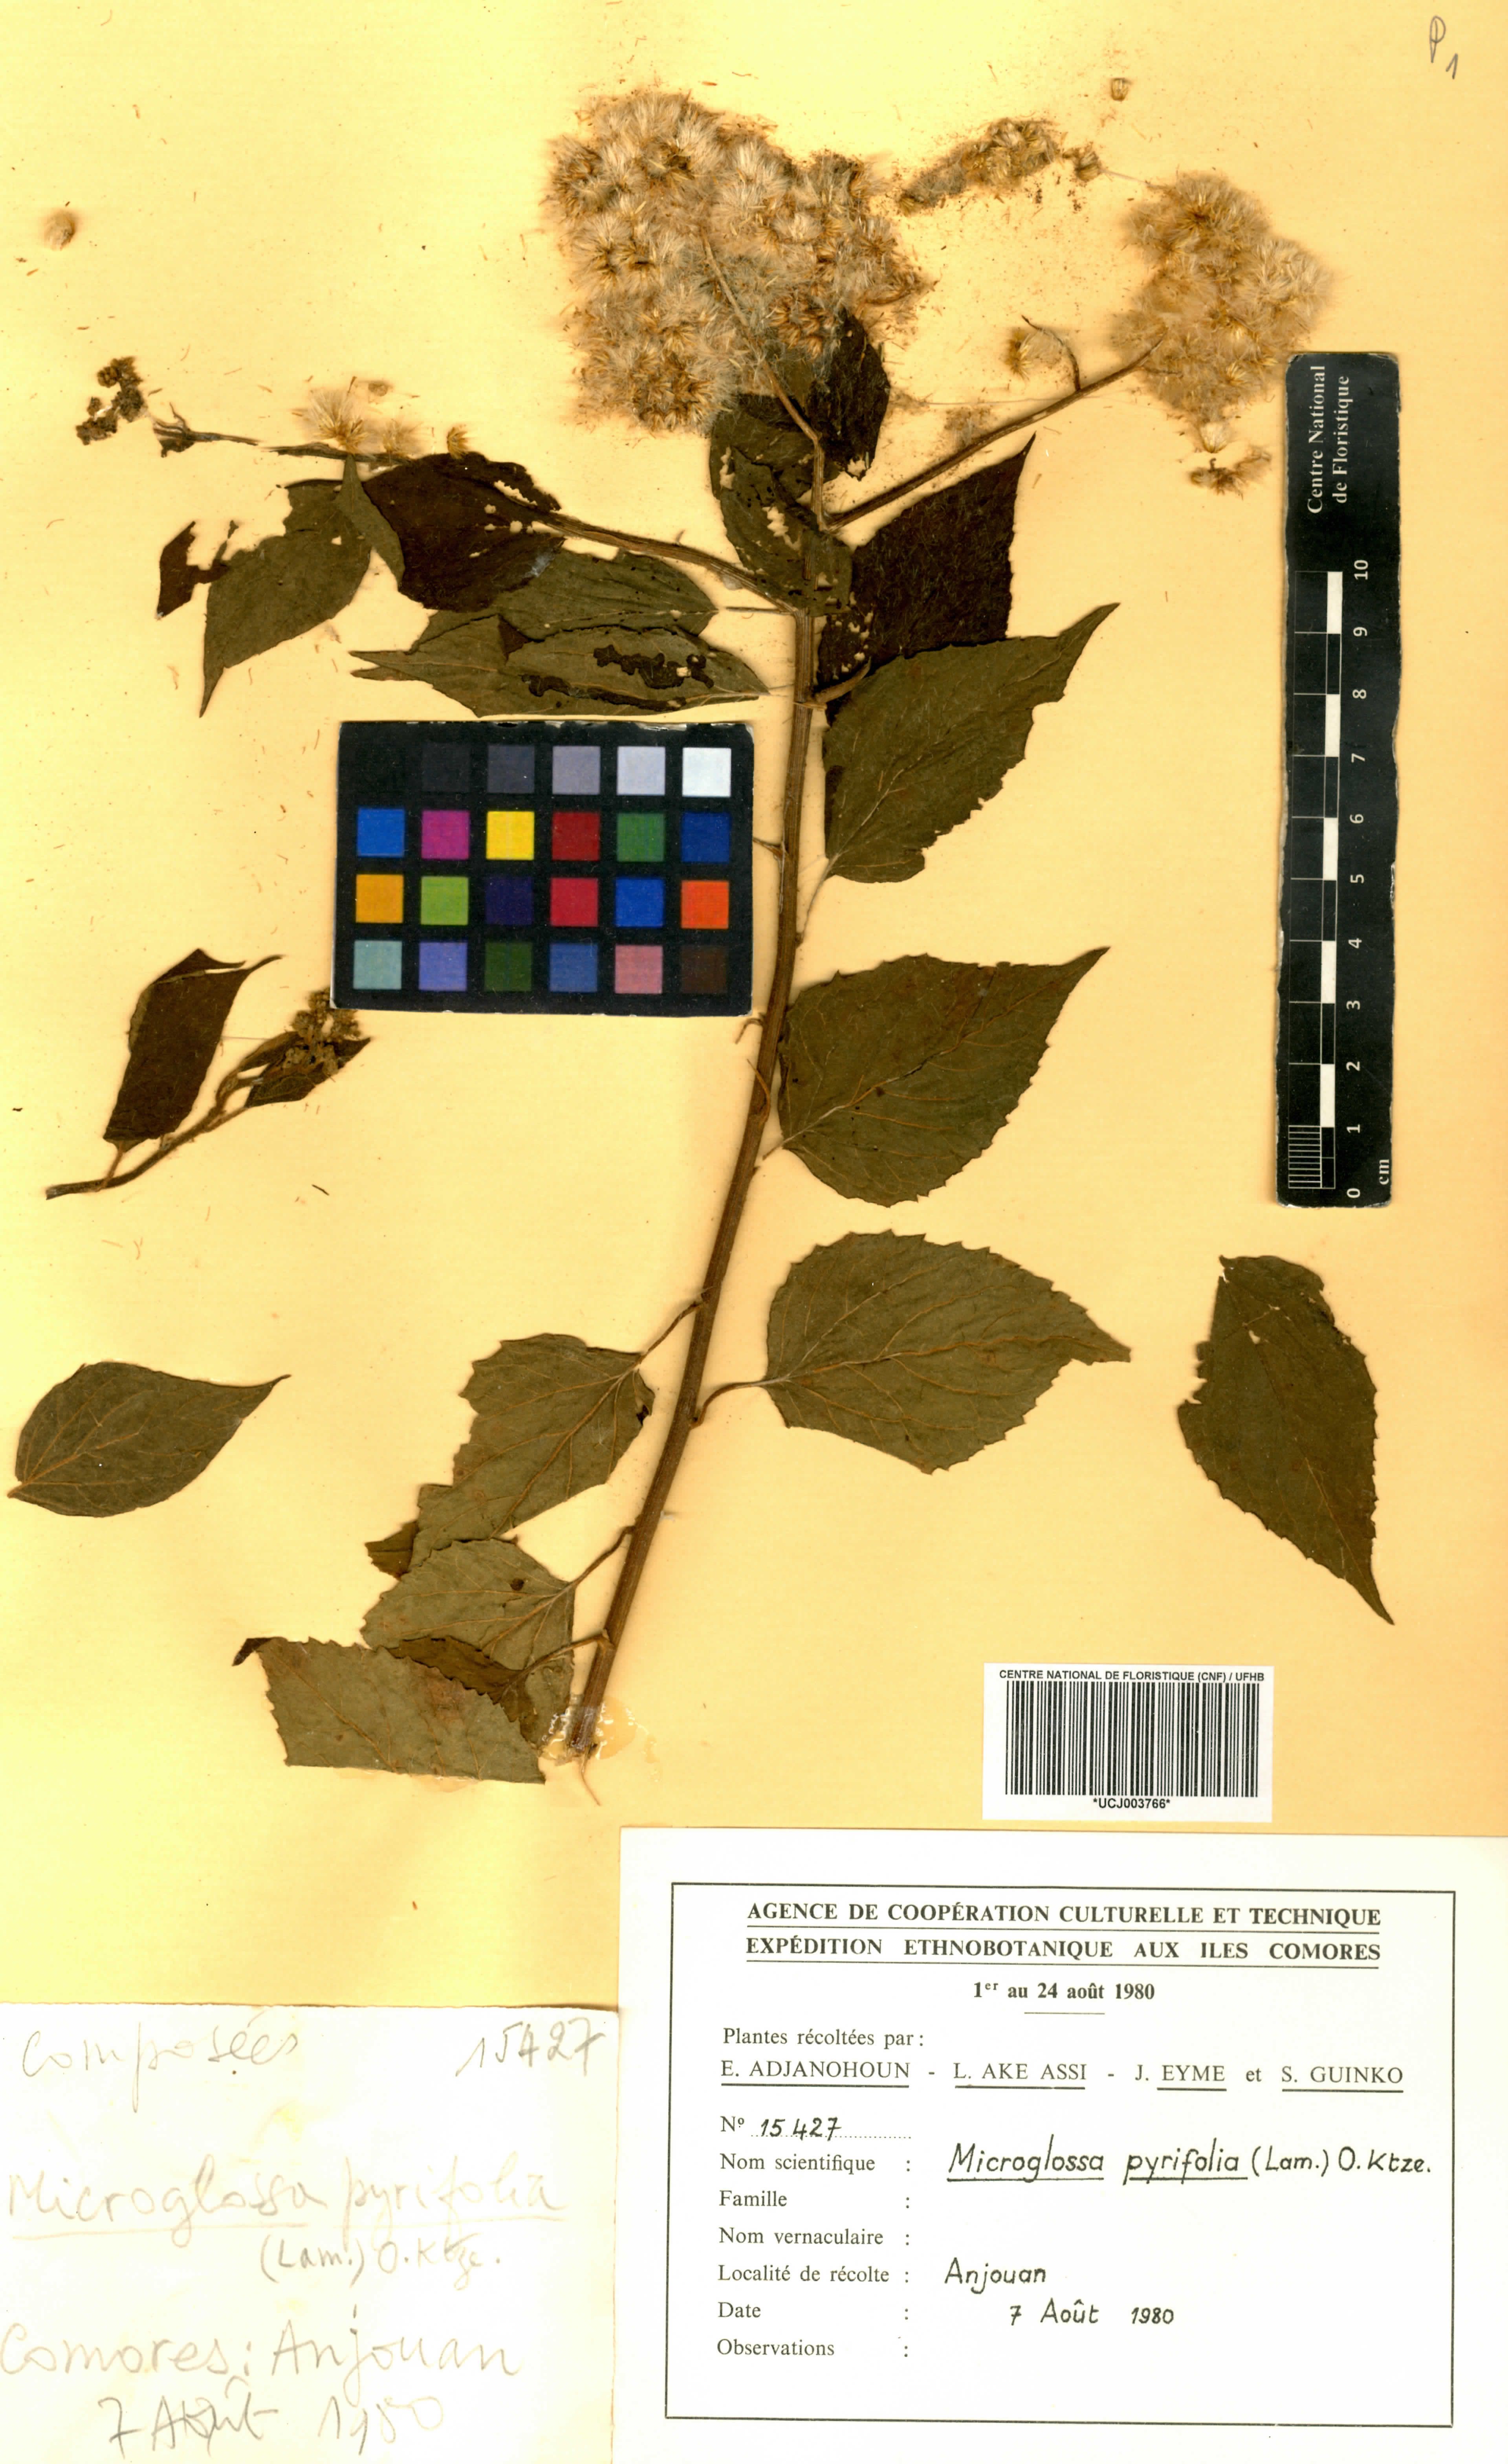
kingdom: Plantae
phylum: Tracheophyta
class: Magnoliopsida
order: Asterales
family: Asteraceae
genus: Microglossa
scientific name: Microglossa pyrifolia
